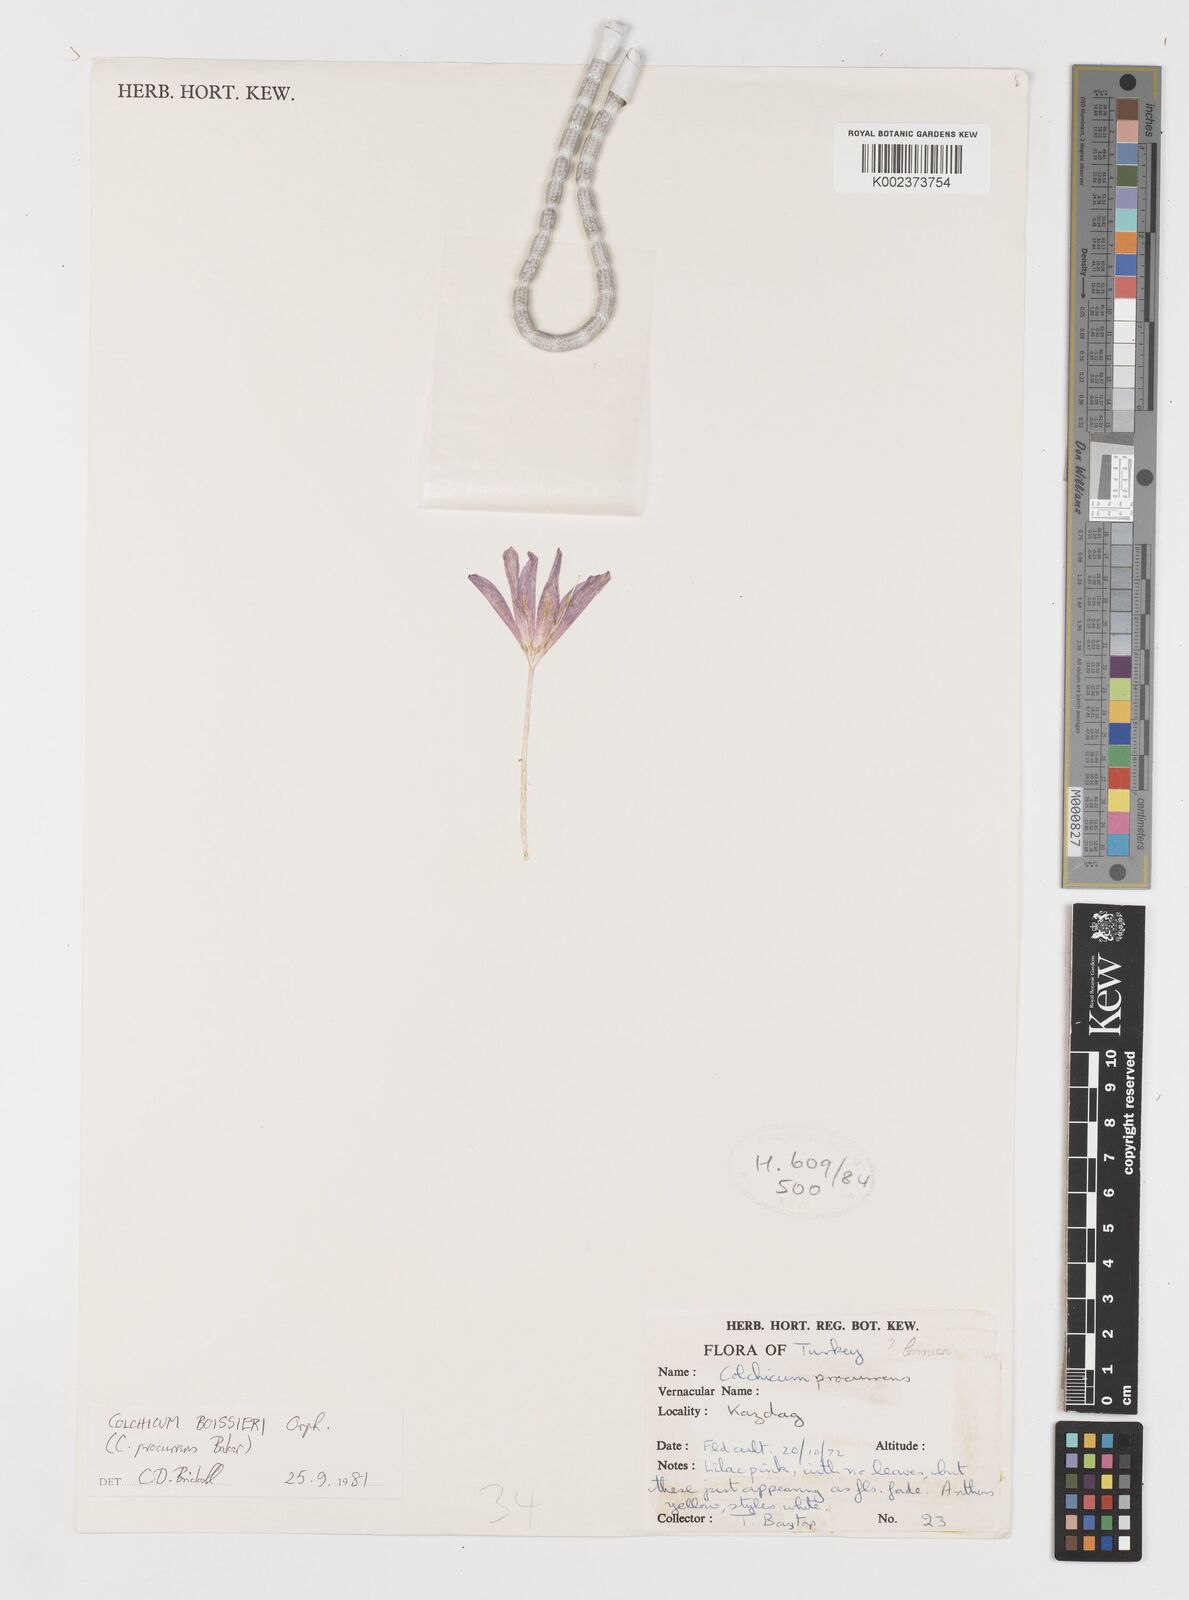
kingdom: Plantae
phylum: Tracheophyta
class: Liliopsida
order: Liliales
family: Colchicaceae
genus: Colchicum
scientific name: Colchicum boissieri
